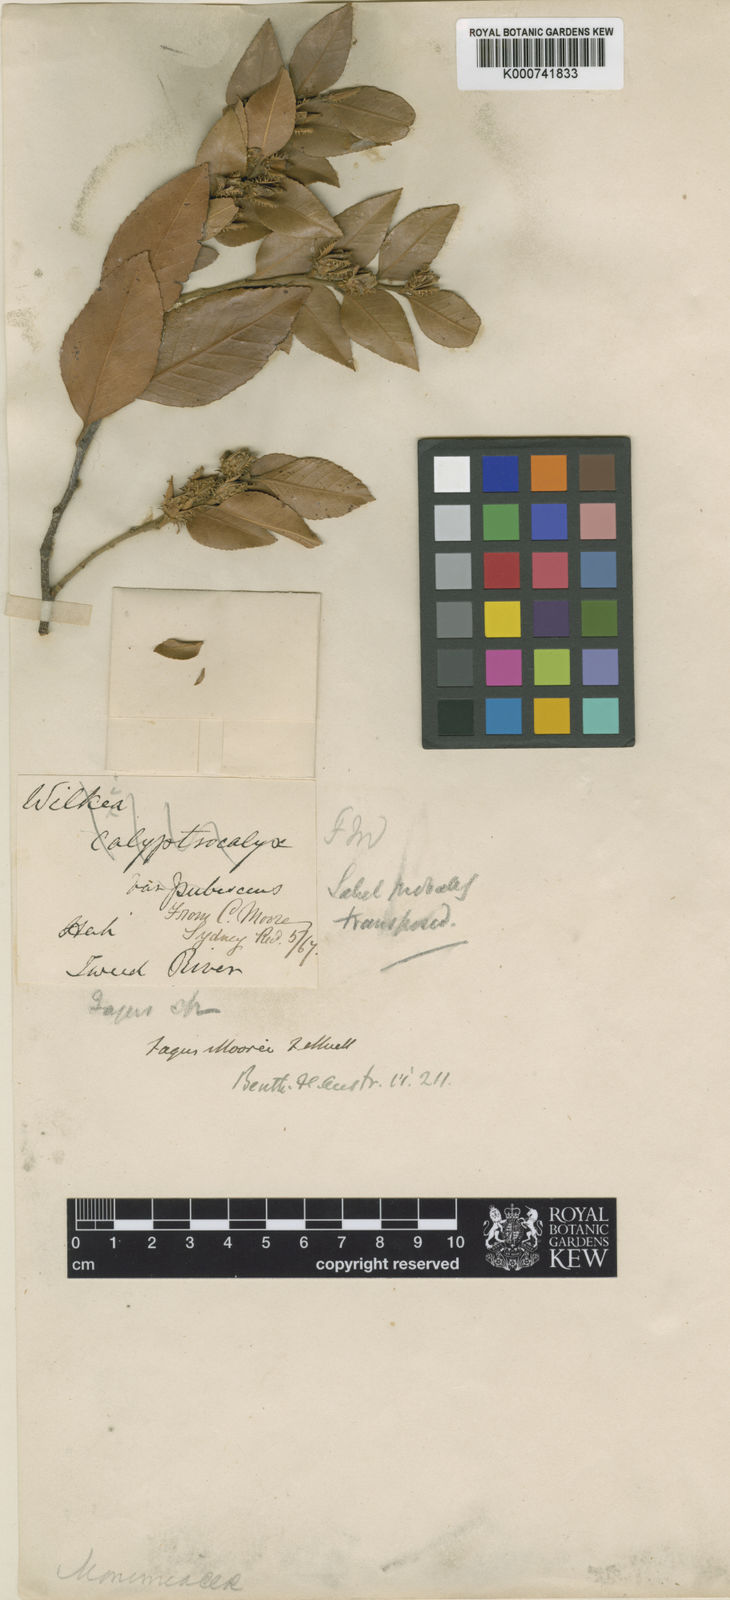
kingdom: Plantae
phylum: Tracheophyta
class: Magnoliopsida
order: Fagales
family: Nothofagaceae
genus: Nothofagus
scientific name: Nothofagus moorei
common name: Antarctic beech
